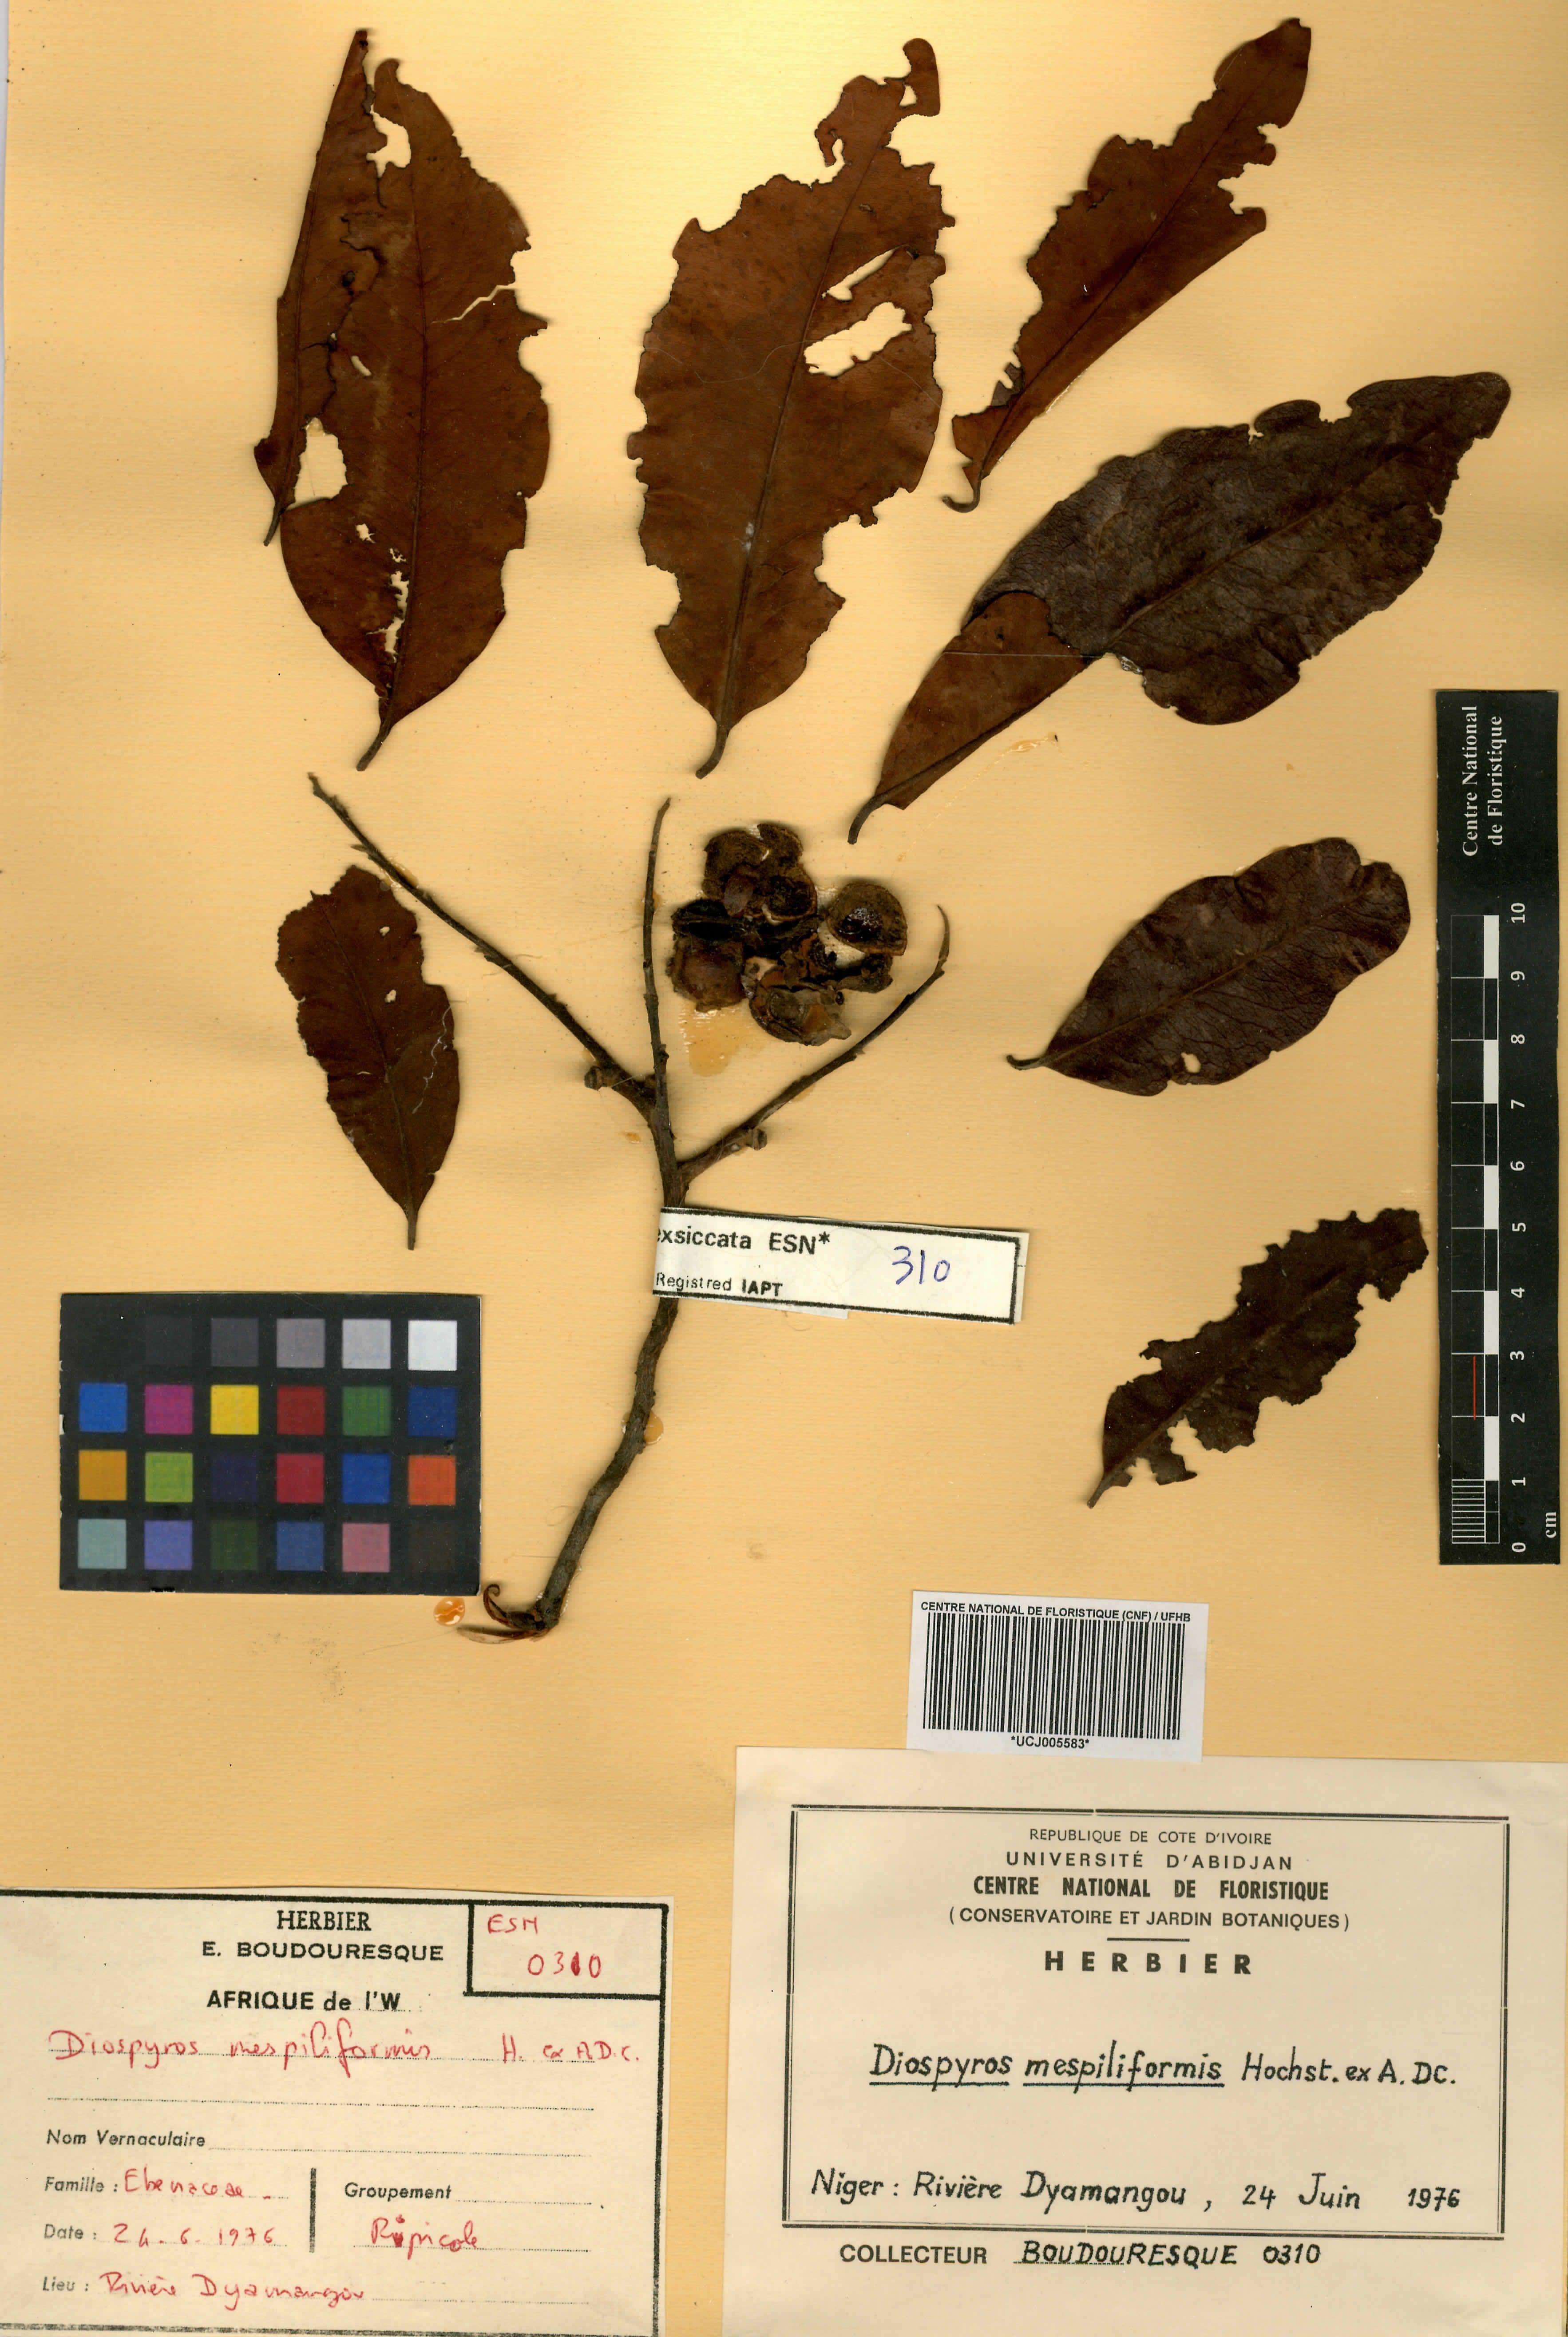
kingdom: Plantae
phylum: Tracheophyta
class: Magnoliopsida
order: Ericales
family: Ebenaceae
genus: Diospyros
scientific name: Diospyros mespiliformis
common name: Ebony diospyros
